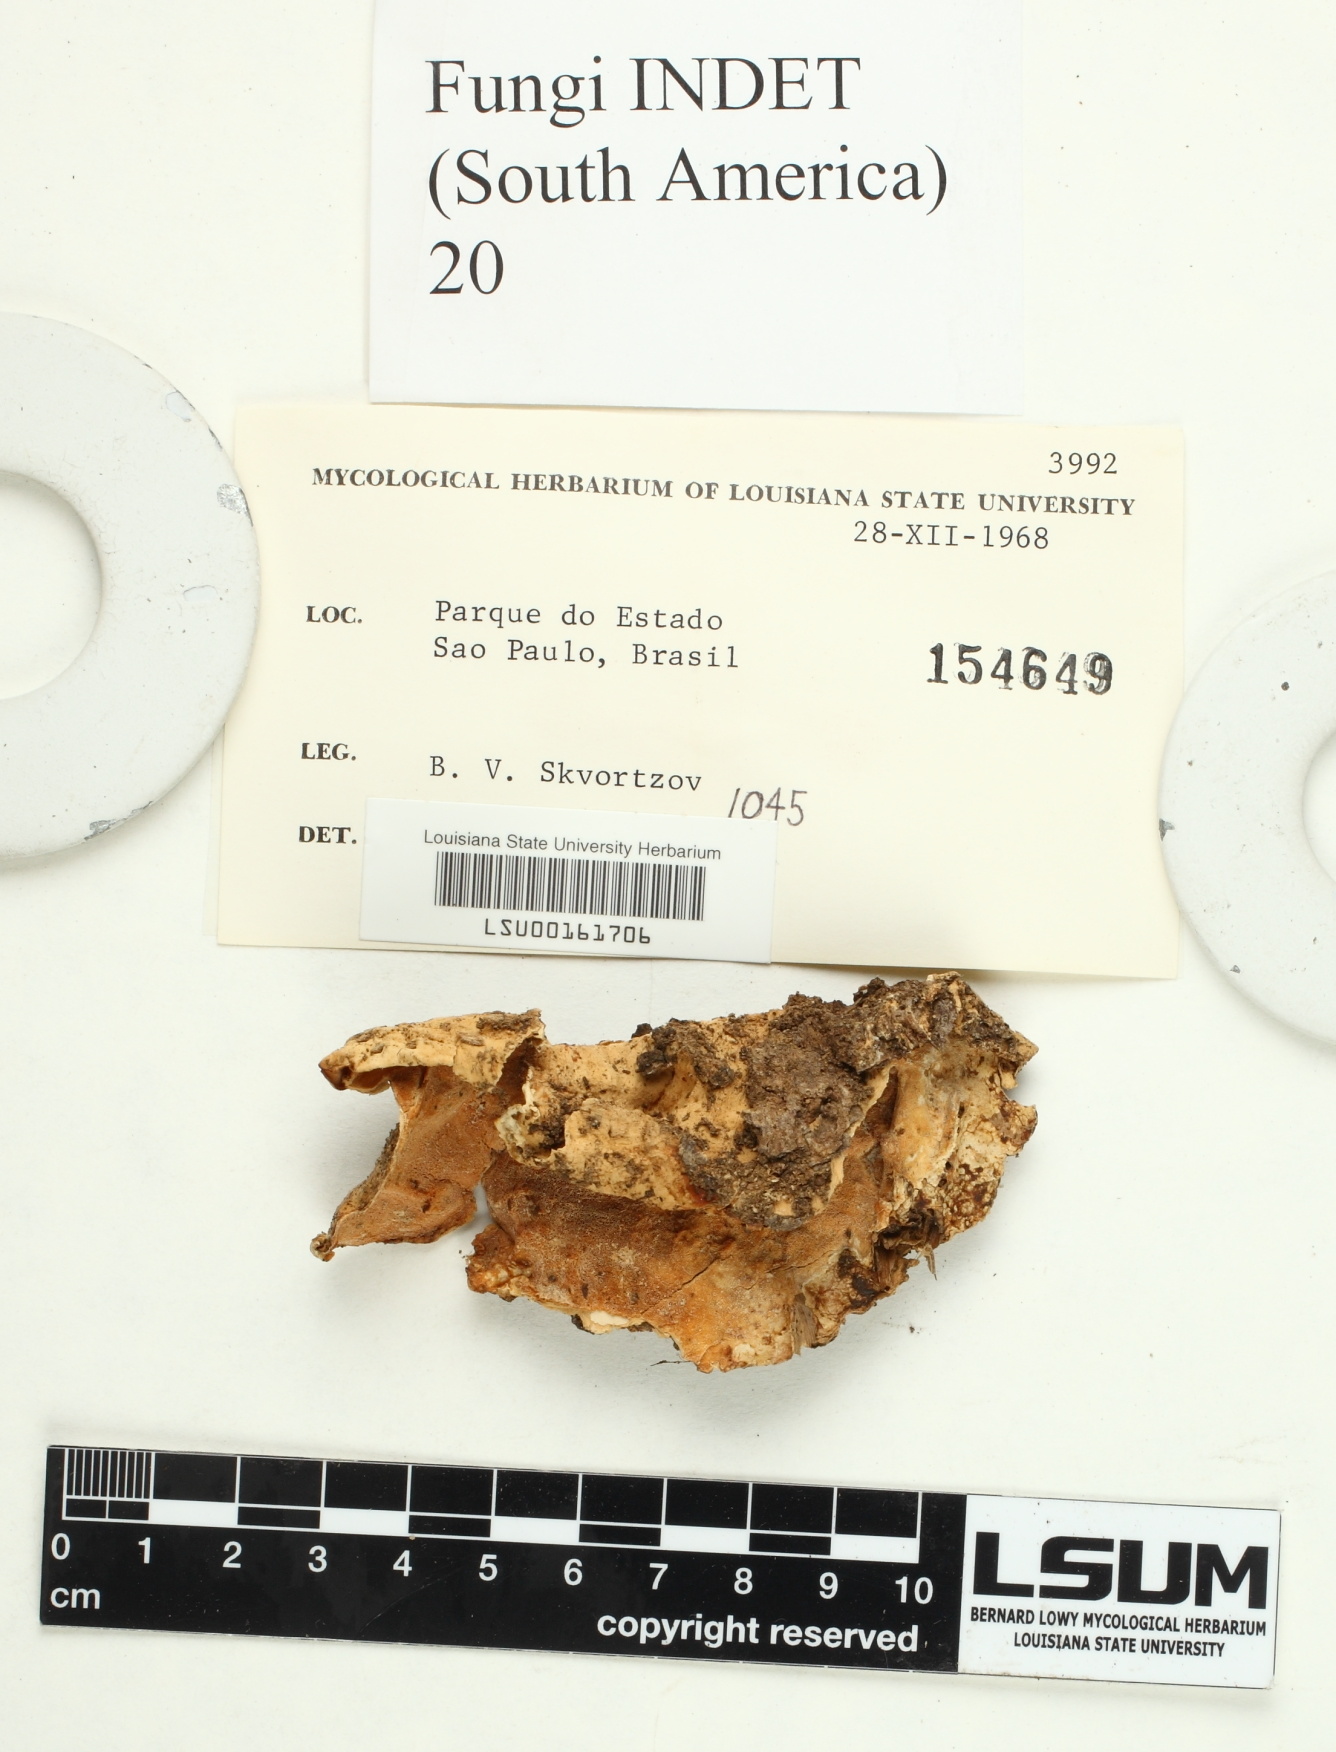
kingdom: Fungi
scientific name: Fungi
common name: Fungi
